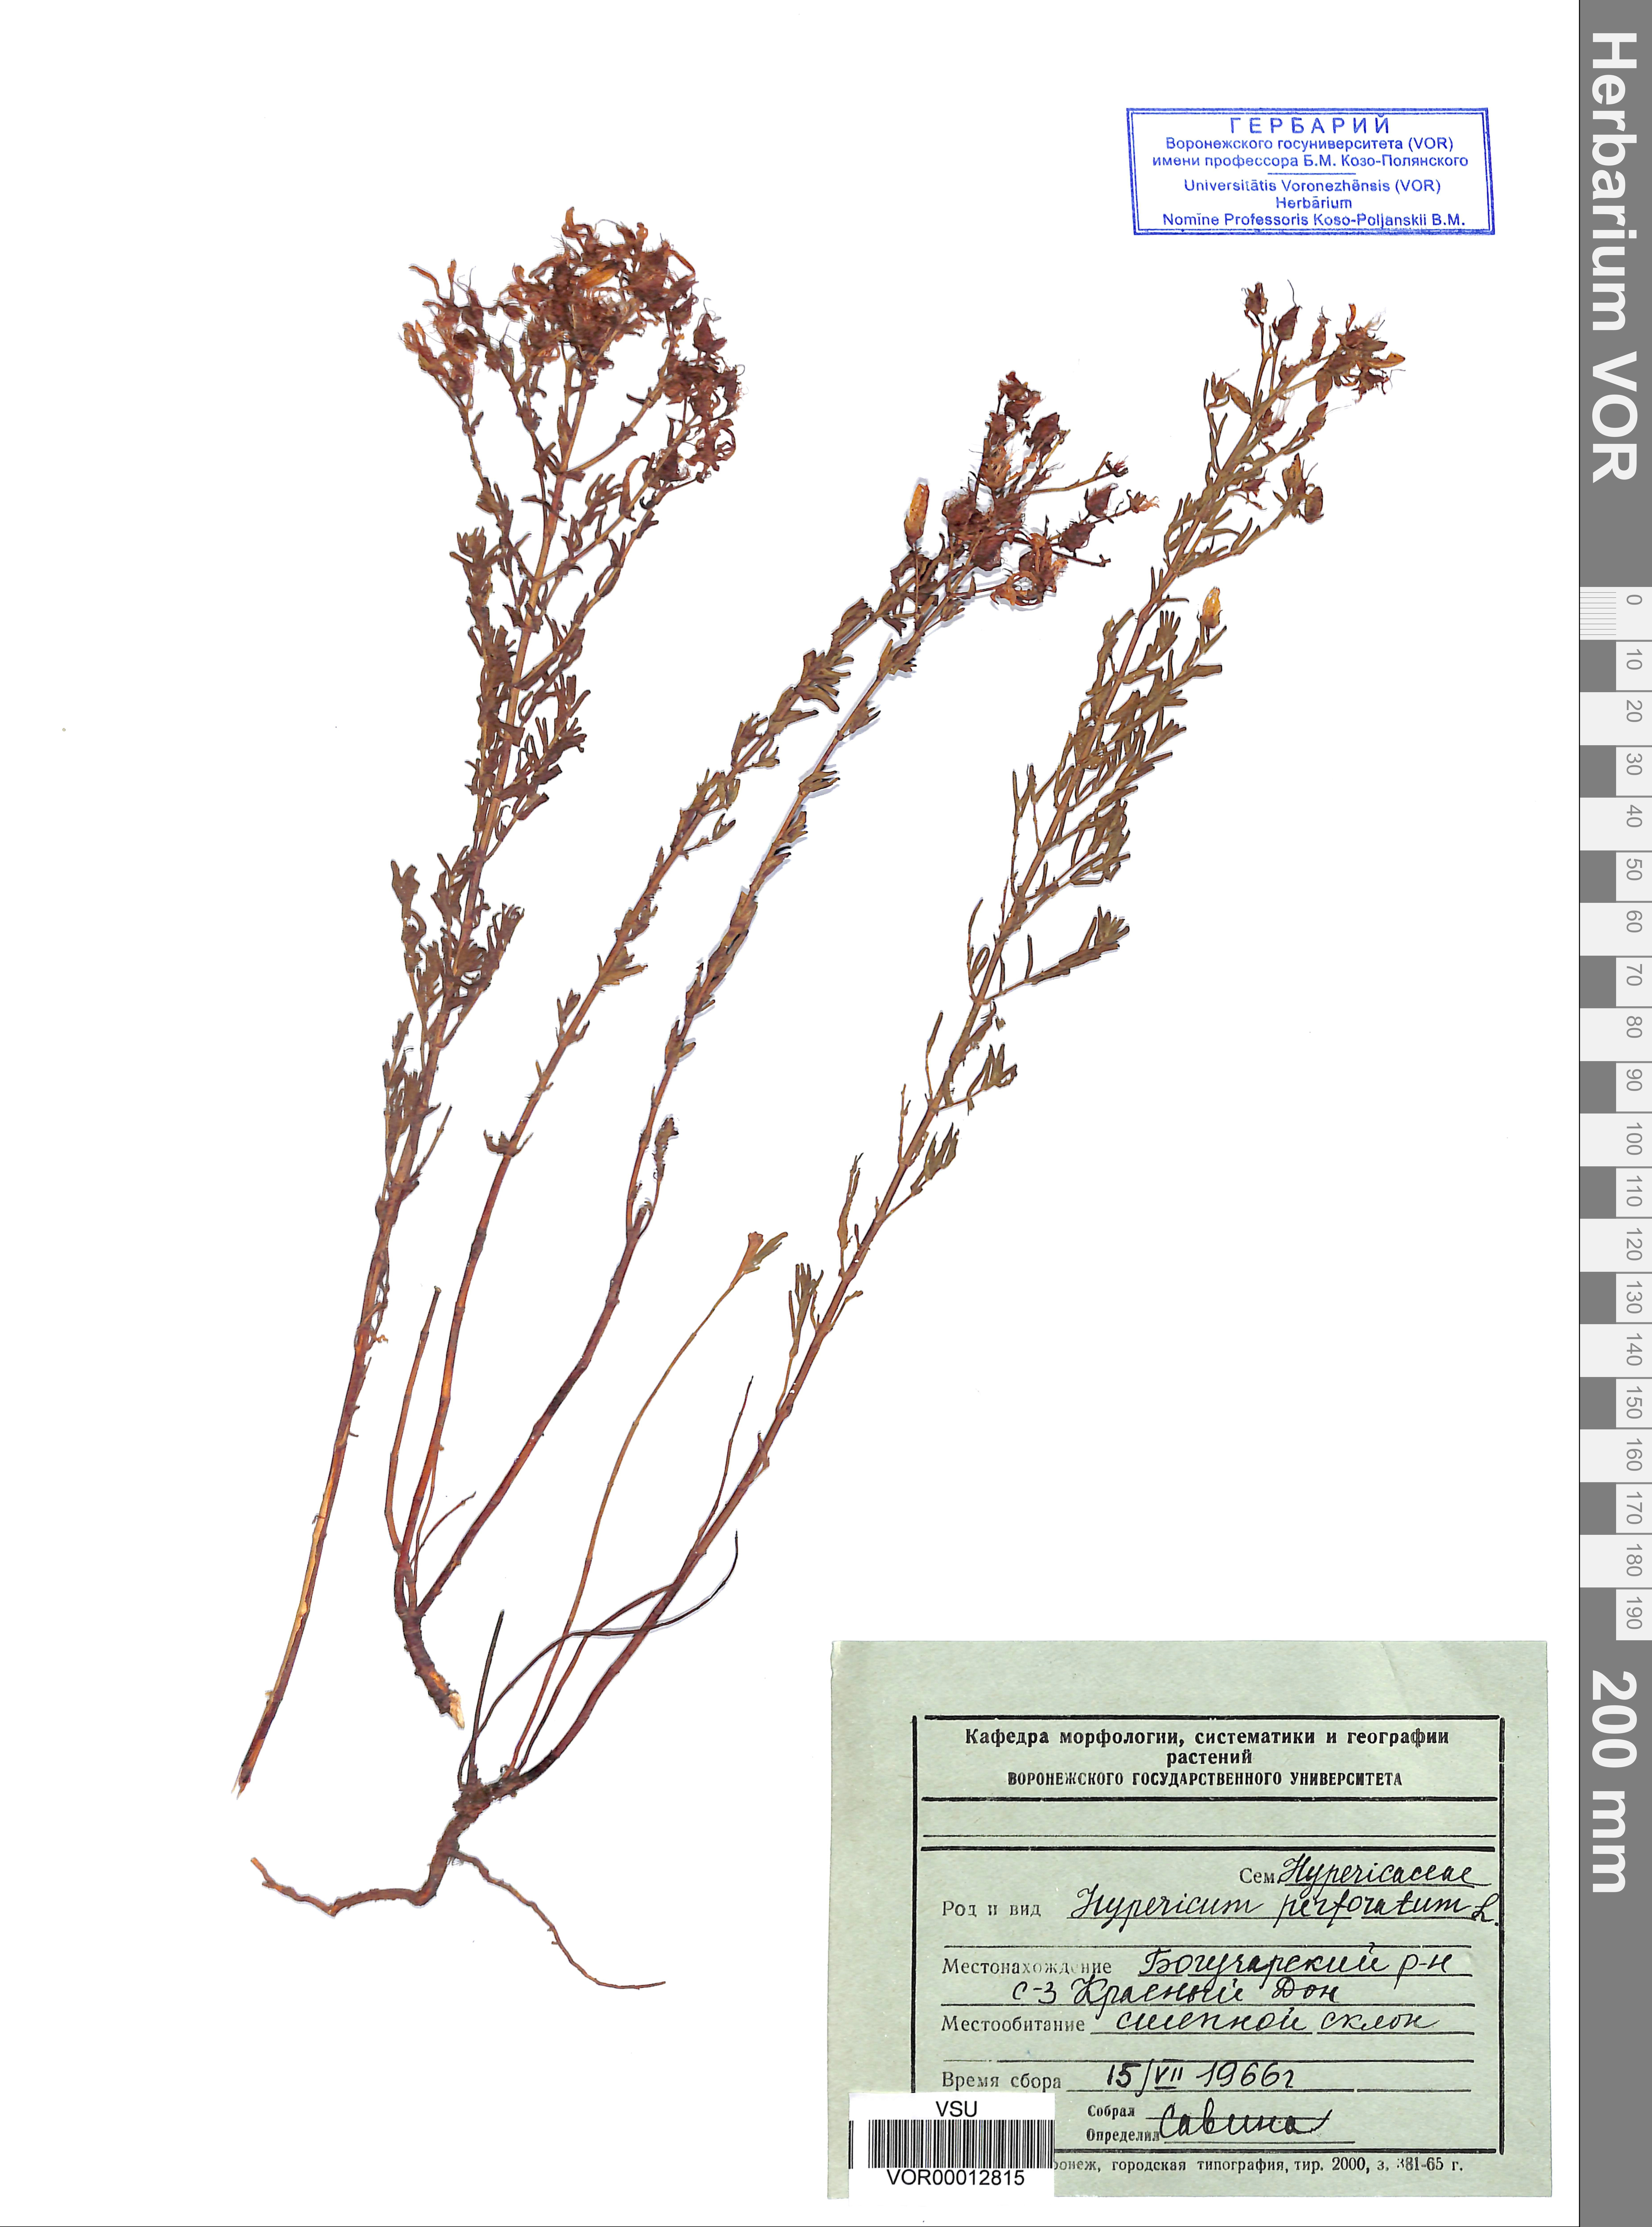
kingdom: Plantae
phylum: Tracheophyta
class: Magnoliopsida
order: Malpighiales
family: Hypericaceae
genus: Hypericum
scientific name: Hypericum perforatum
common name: Common st. johnswort
